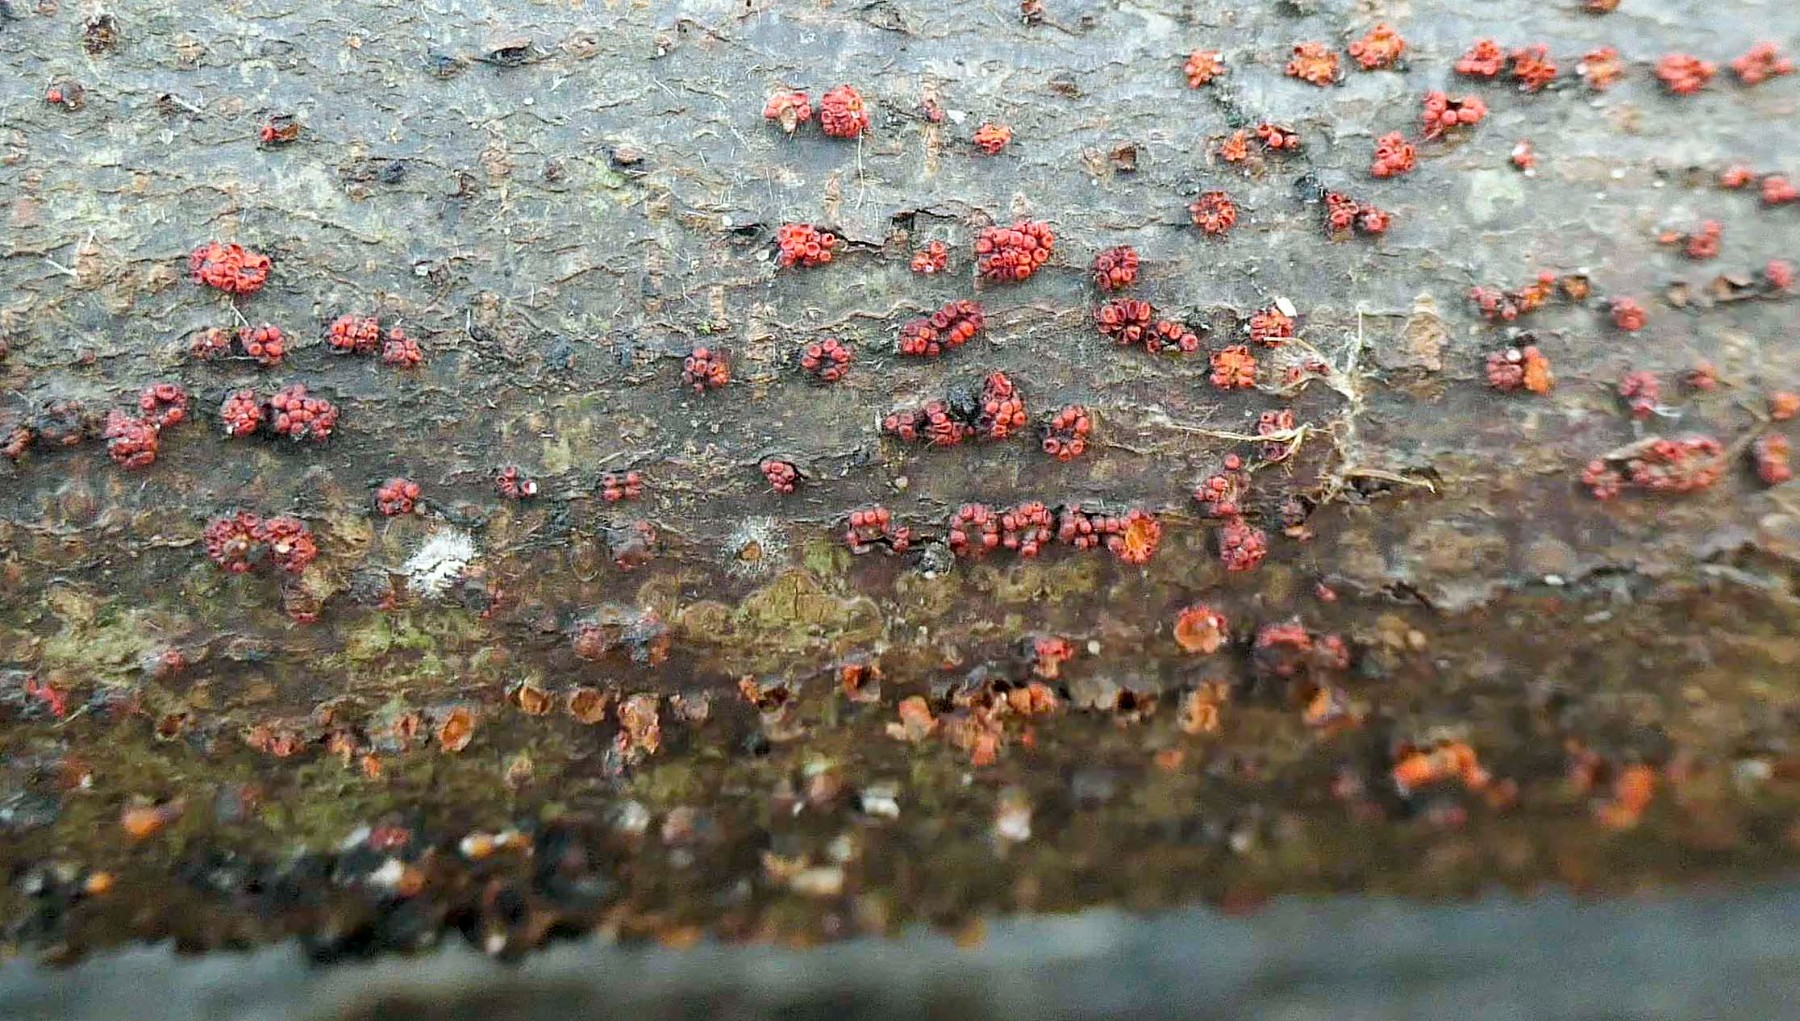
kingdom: Fungi
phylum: Ascomycota
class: Sordariomycetes
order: Hypocreales
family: Nectriaceae
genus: Nectria
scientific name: Nectria cinnabarina
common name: almindelig cinnobersvamp
